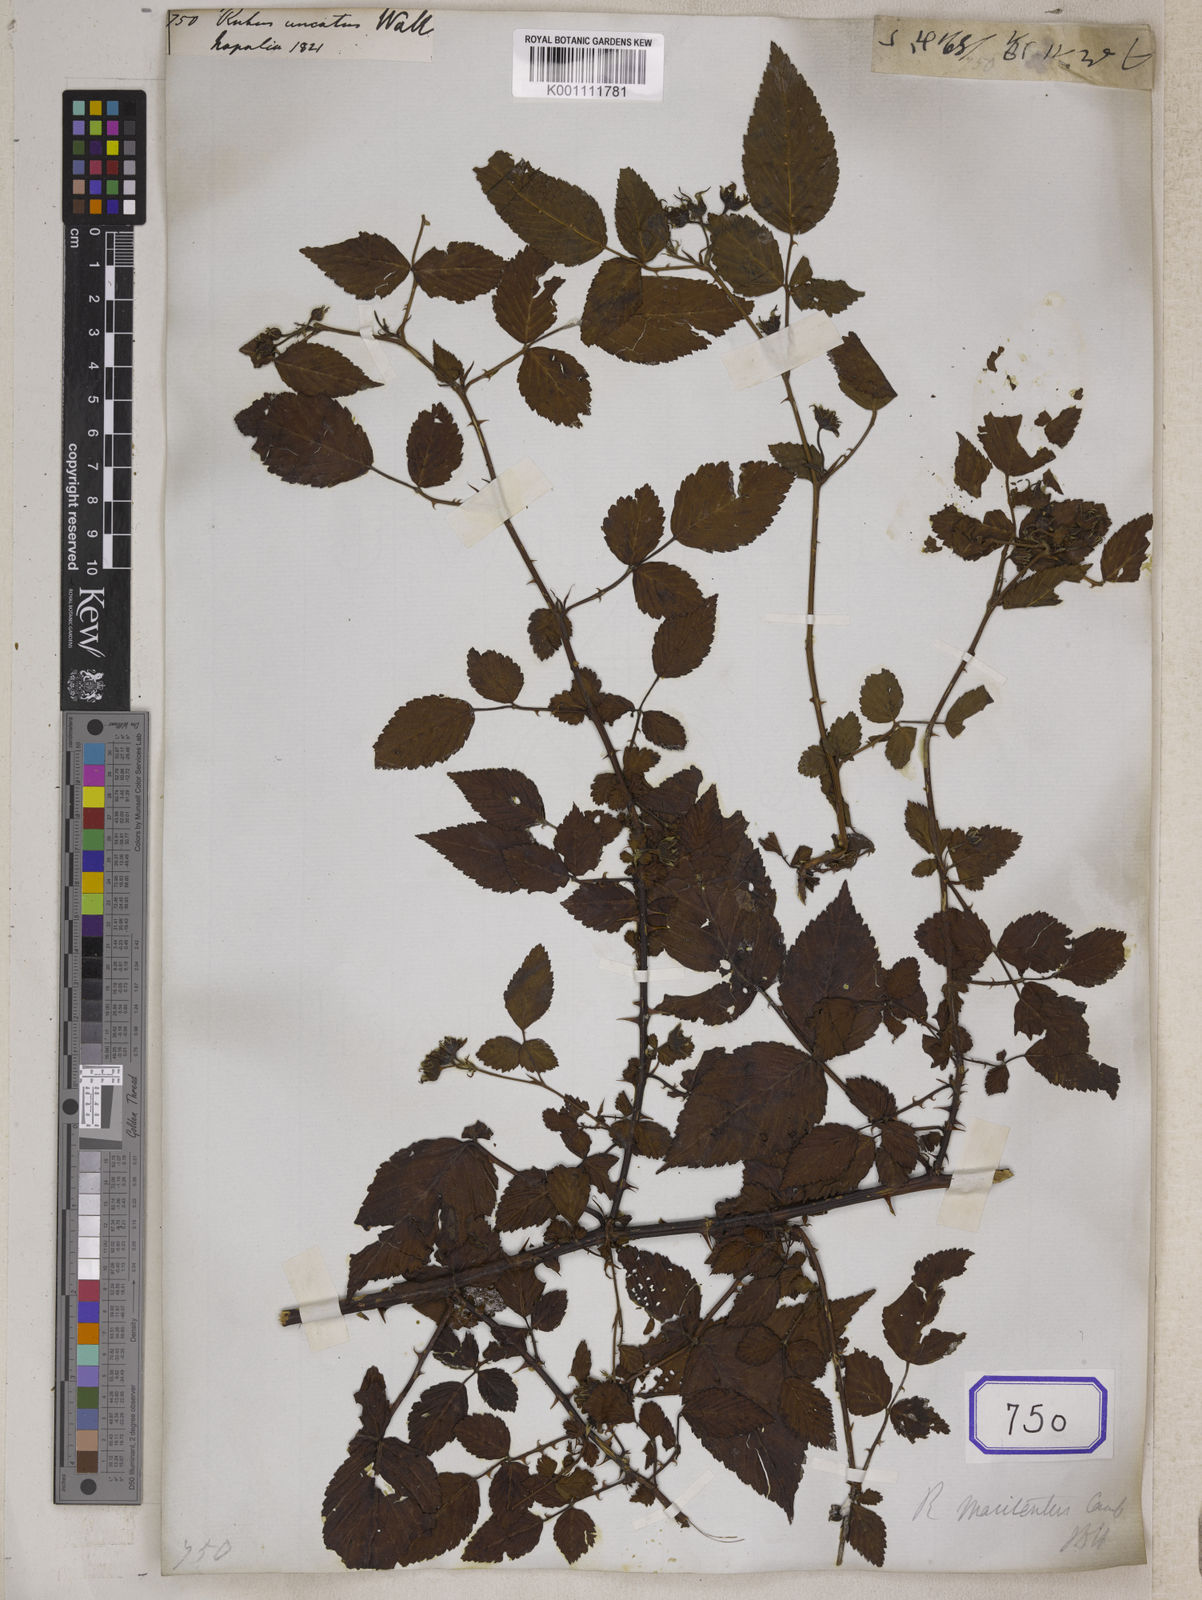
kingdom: Plantae
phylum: Tracheophyta
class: Magnoliopsida
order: Rosales
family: Rosaceae
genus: Rubus
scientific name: Rubus macilentus
